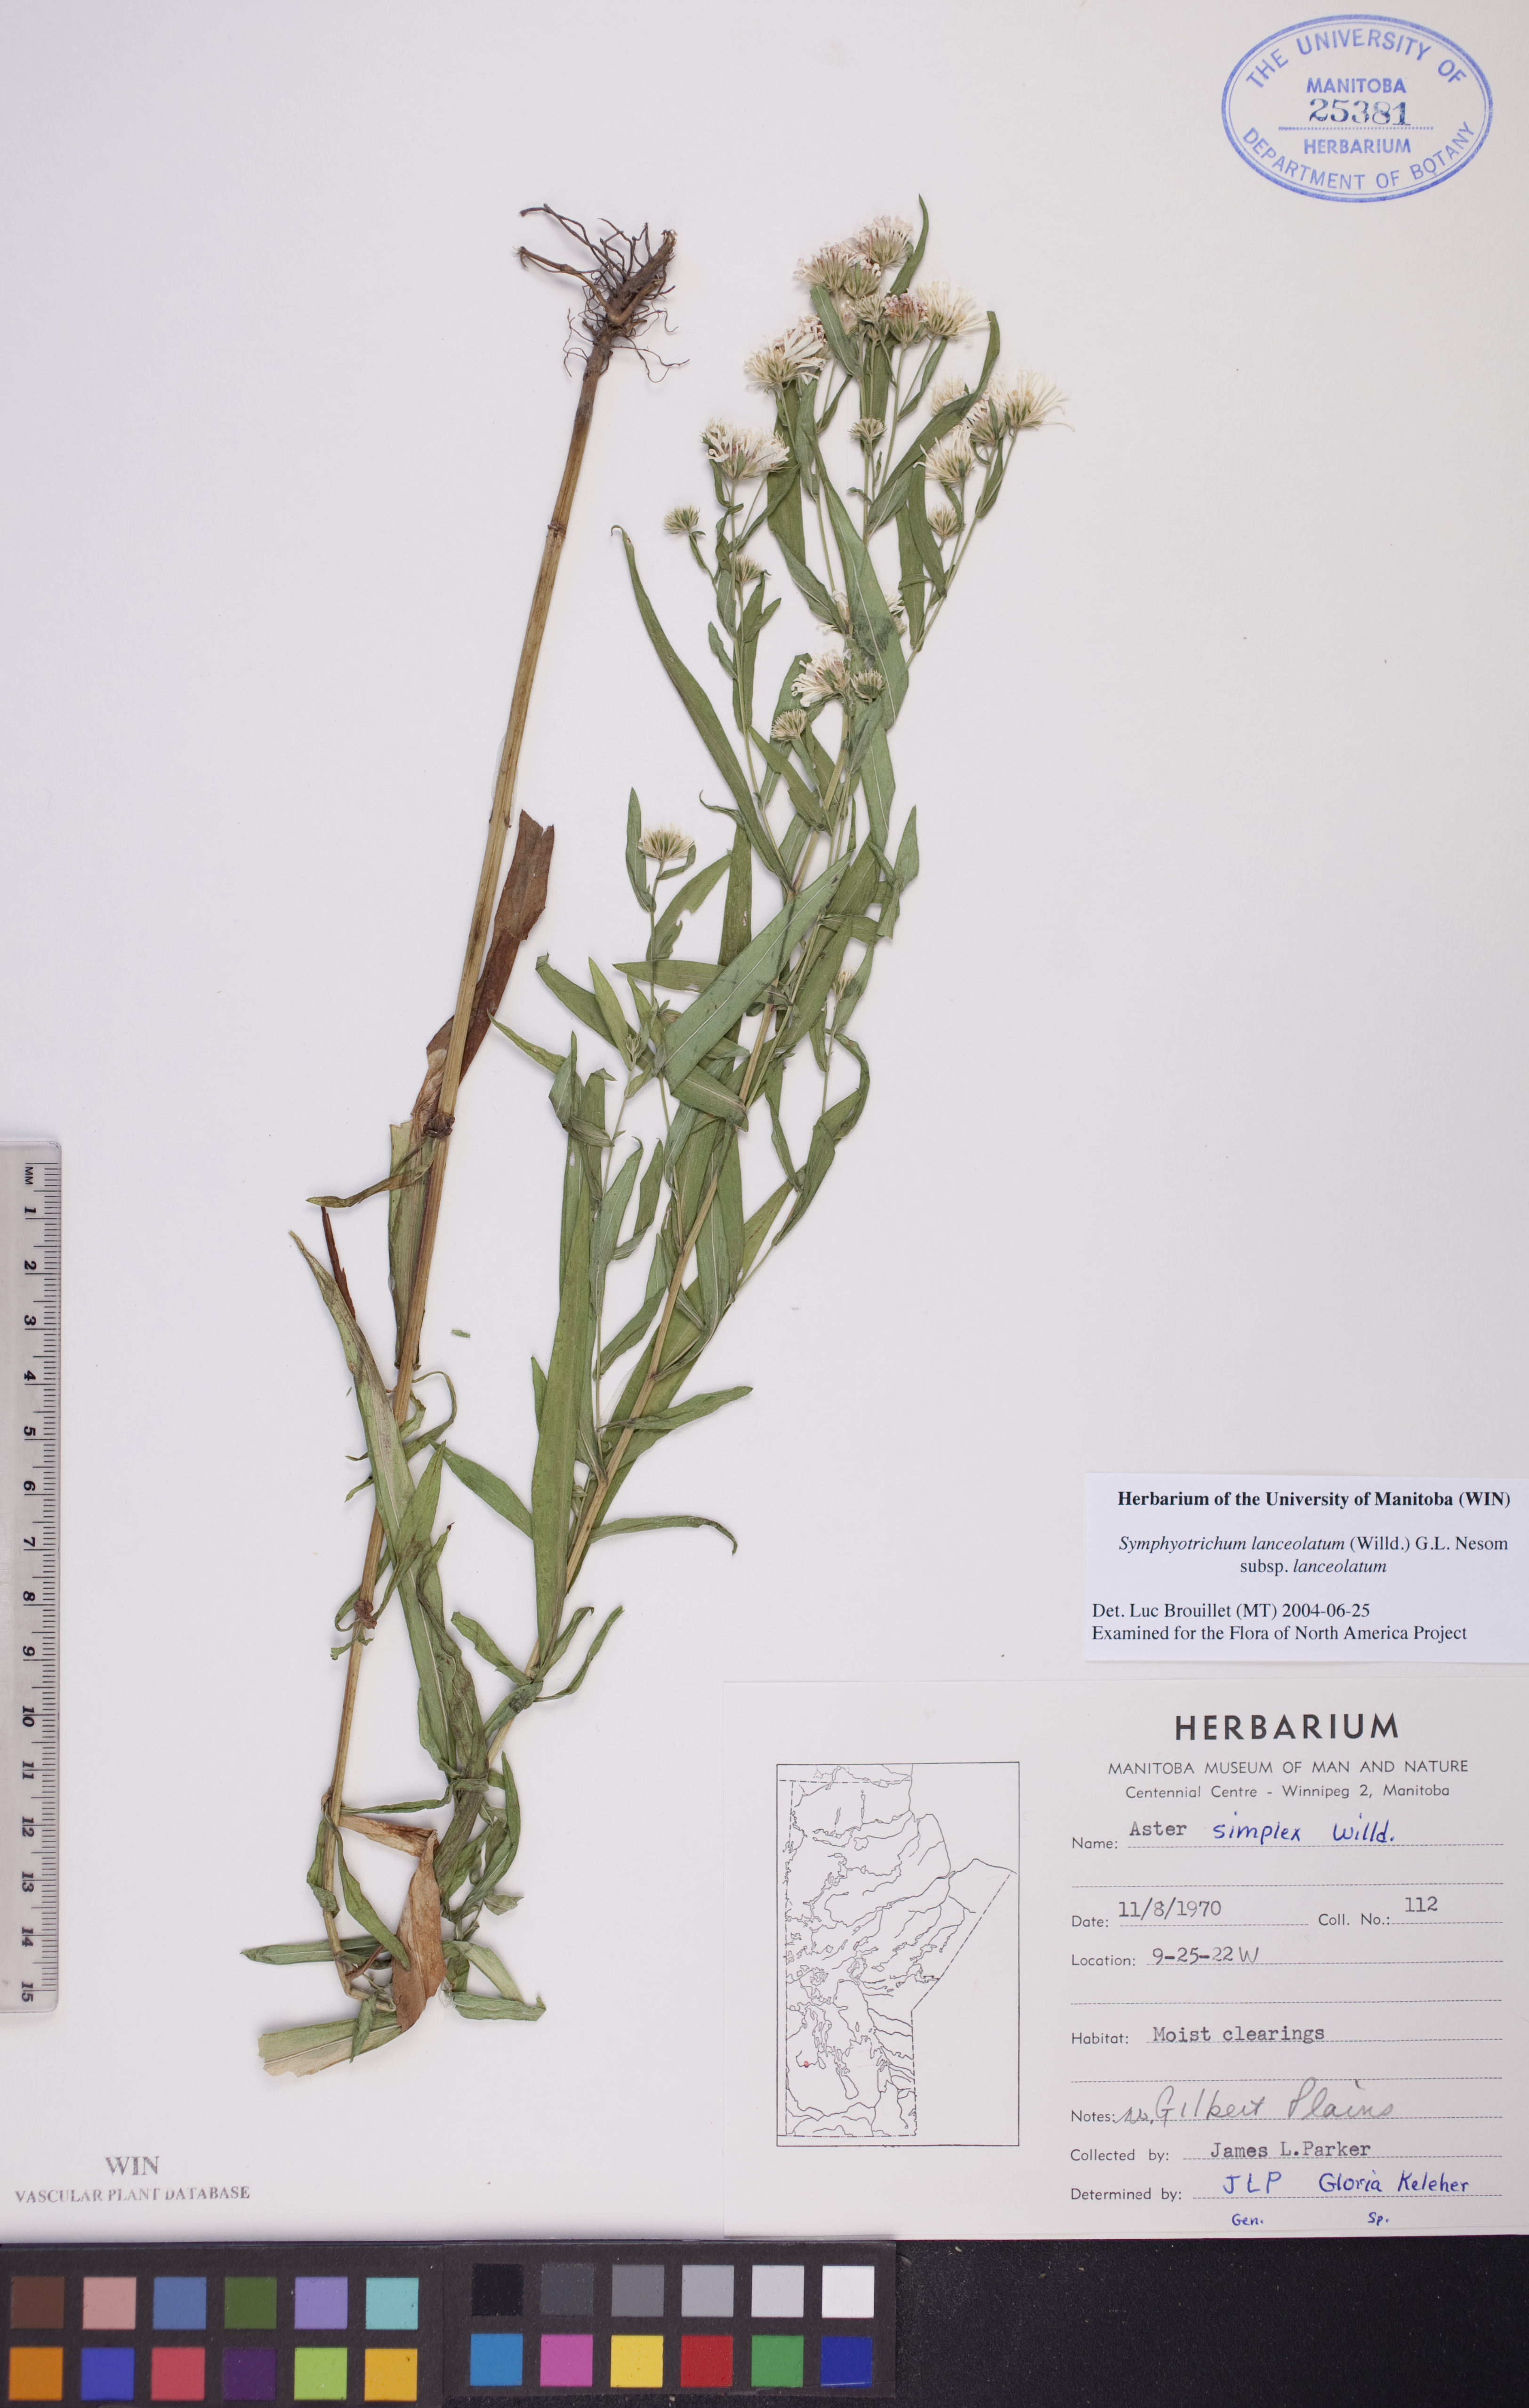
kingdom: Plantae
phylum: Tracheophyta
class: Magnoliopsida
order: Asterales
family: Asteraceae
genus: Symphyotrichum
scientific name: Symphyotrichum lanceolatum
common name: Panicled aster
